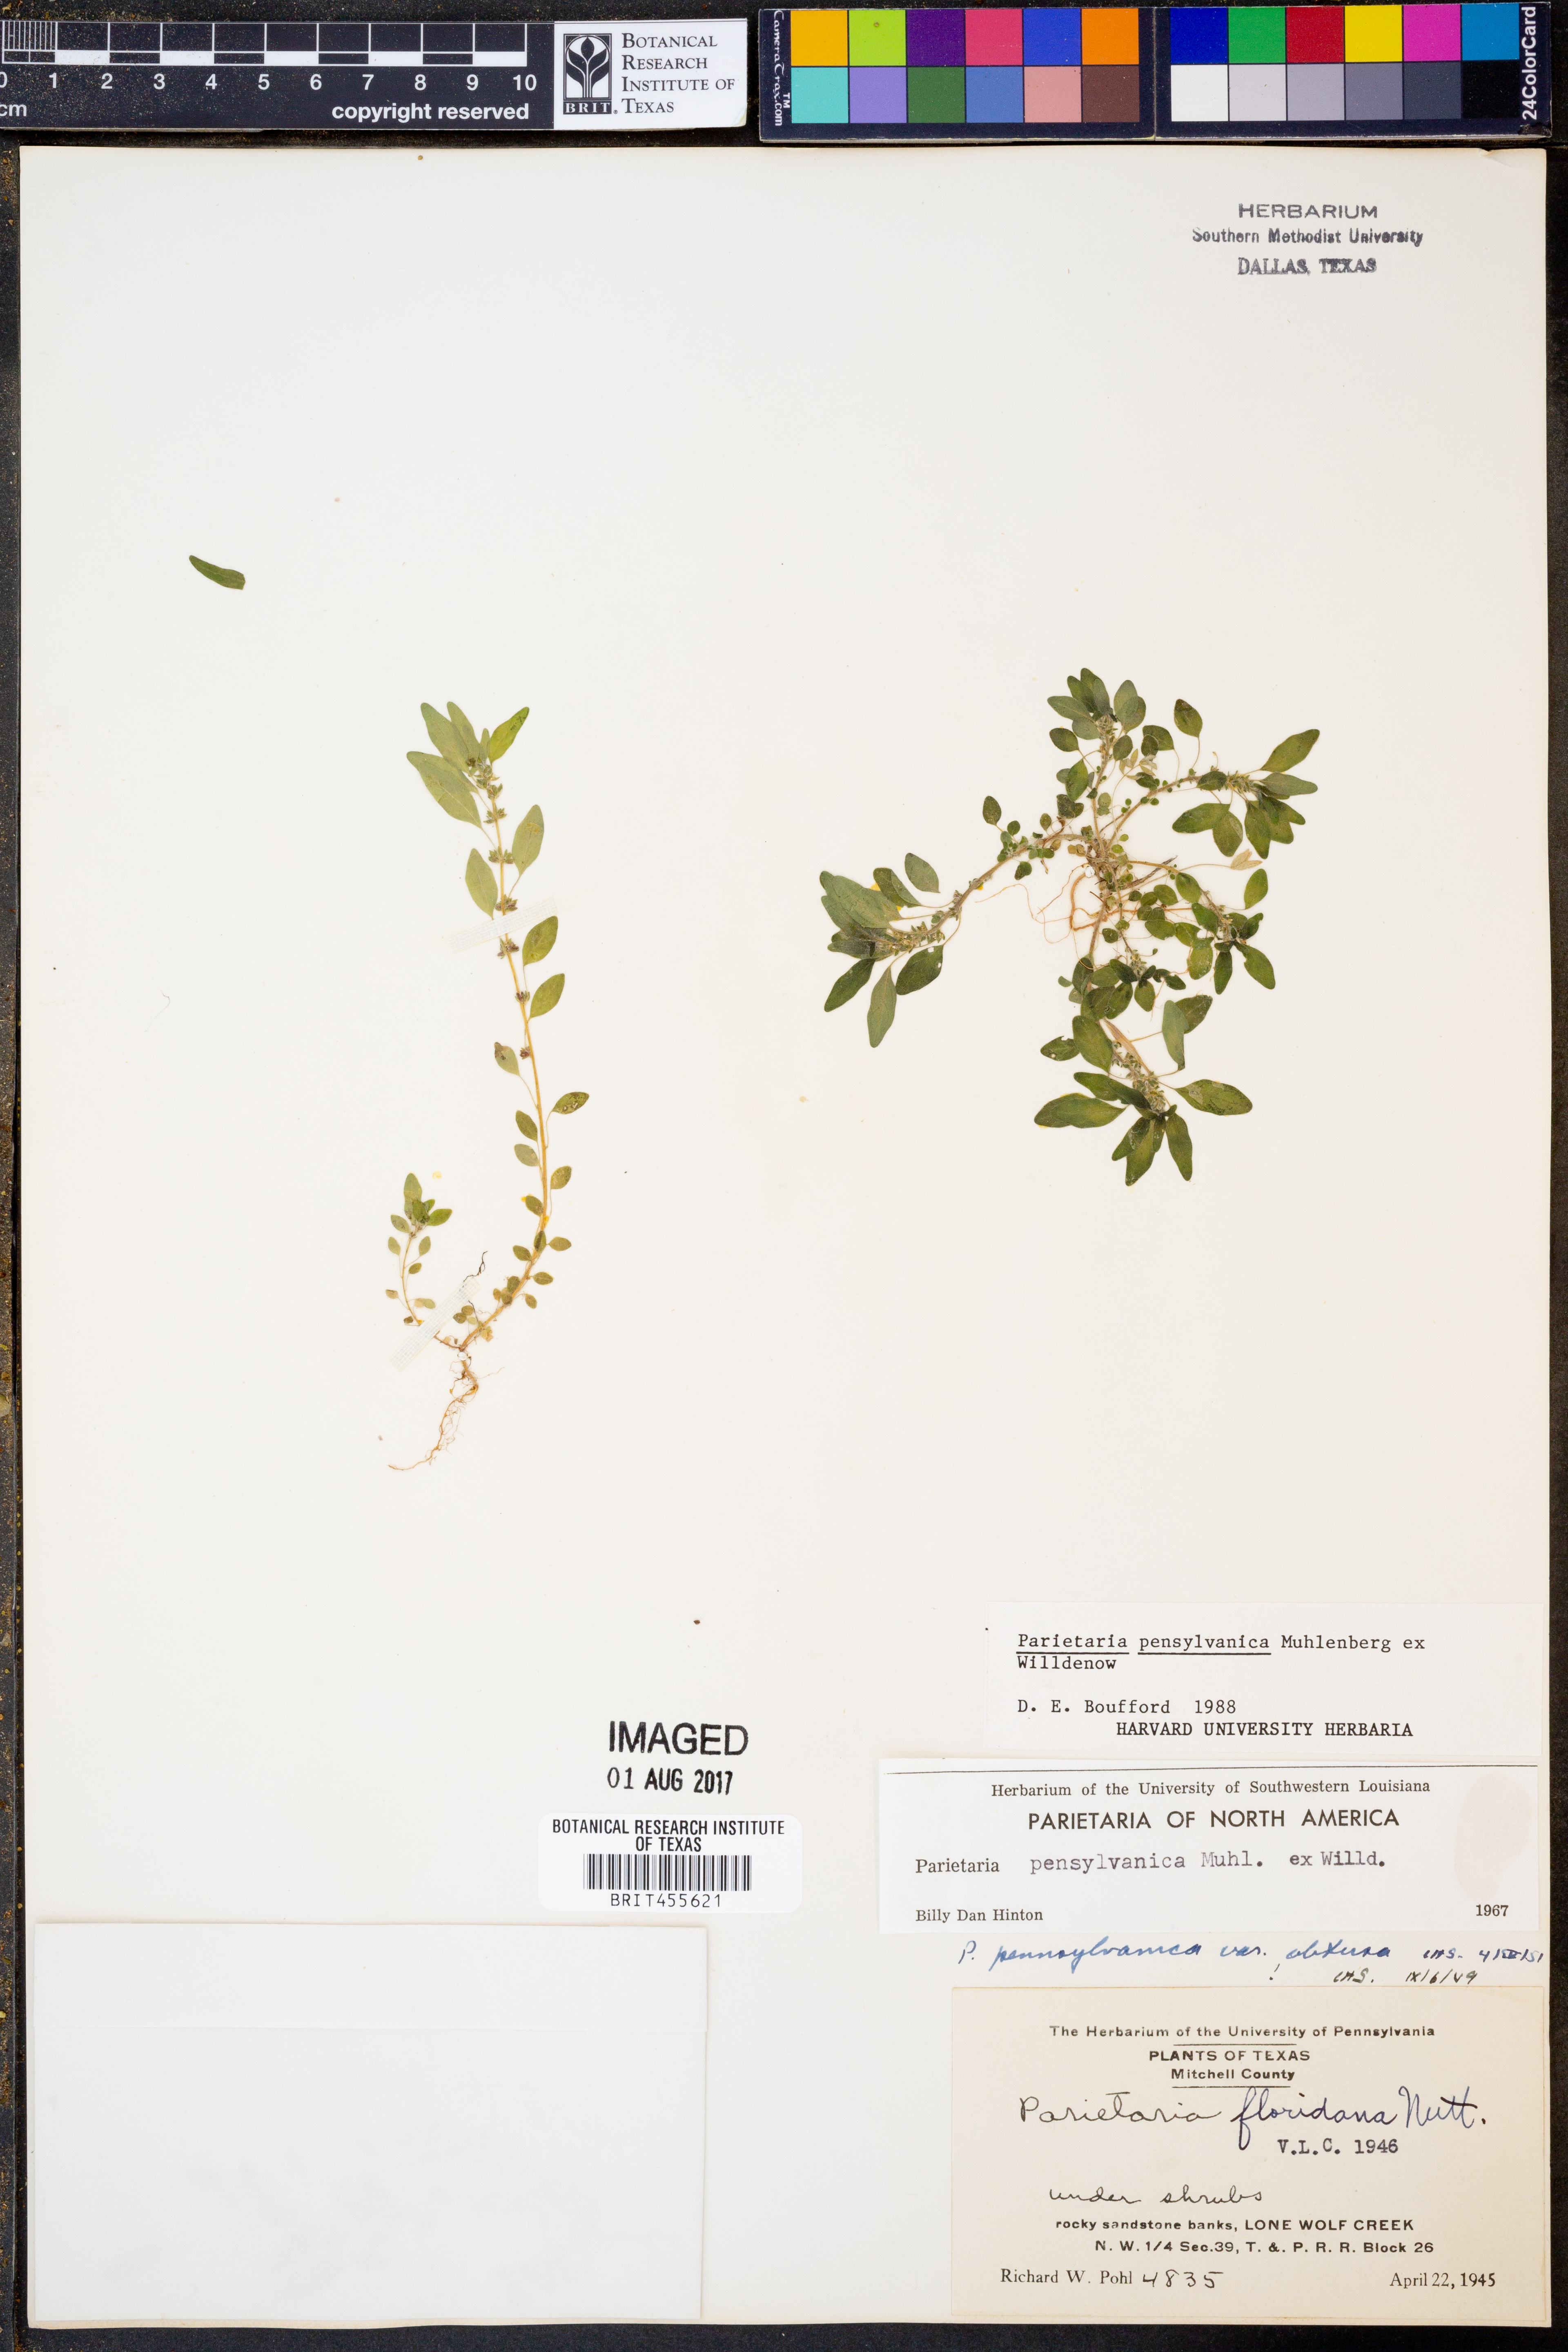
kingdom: Plantae
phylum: Tracheophyta
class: Magnoliopsida
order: Rosales
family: Urticaceae
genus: Parietaria
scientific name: Parietaria pensylvanica
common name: Pennsylvania pellitory
